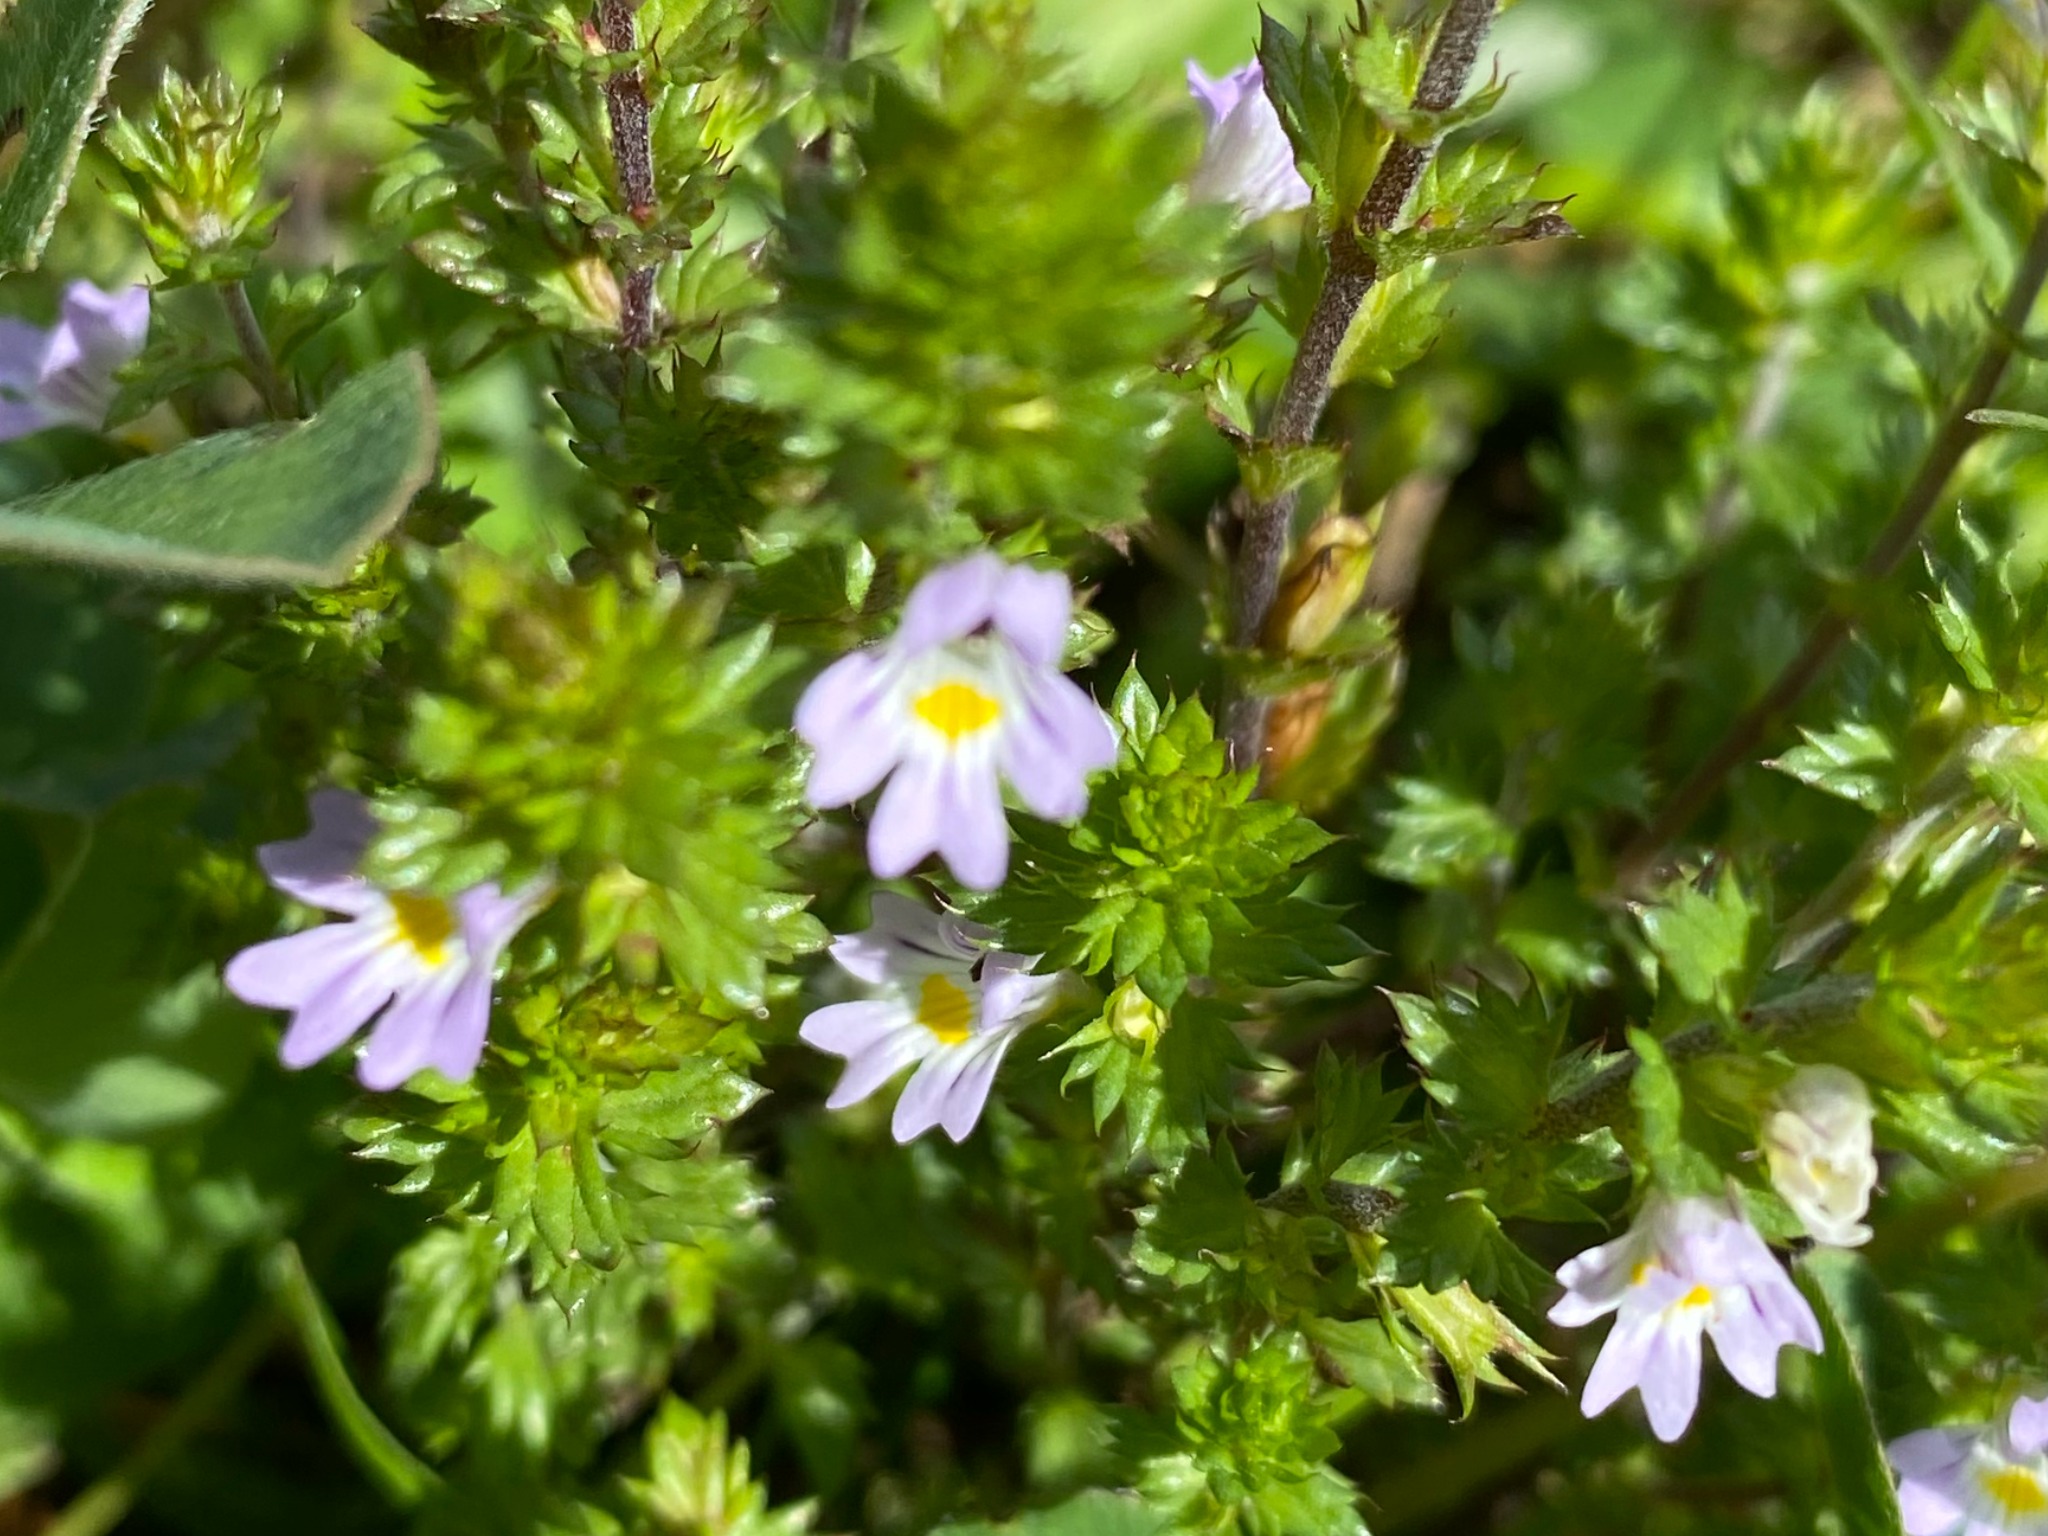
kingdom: Plantae
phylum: Tracheophyta
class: Magnoliopsida
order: Lamiales
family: Orobanchaceae
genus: Euphrasia
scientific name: Euphrasia stricta
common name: Spids øjentrøst
